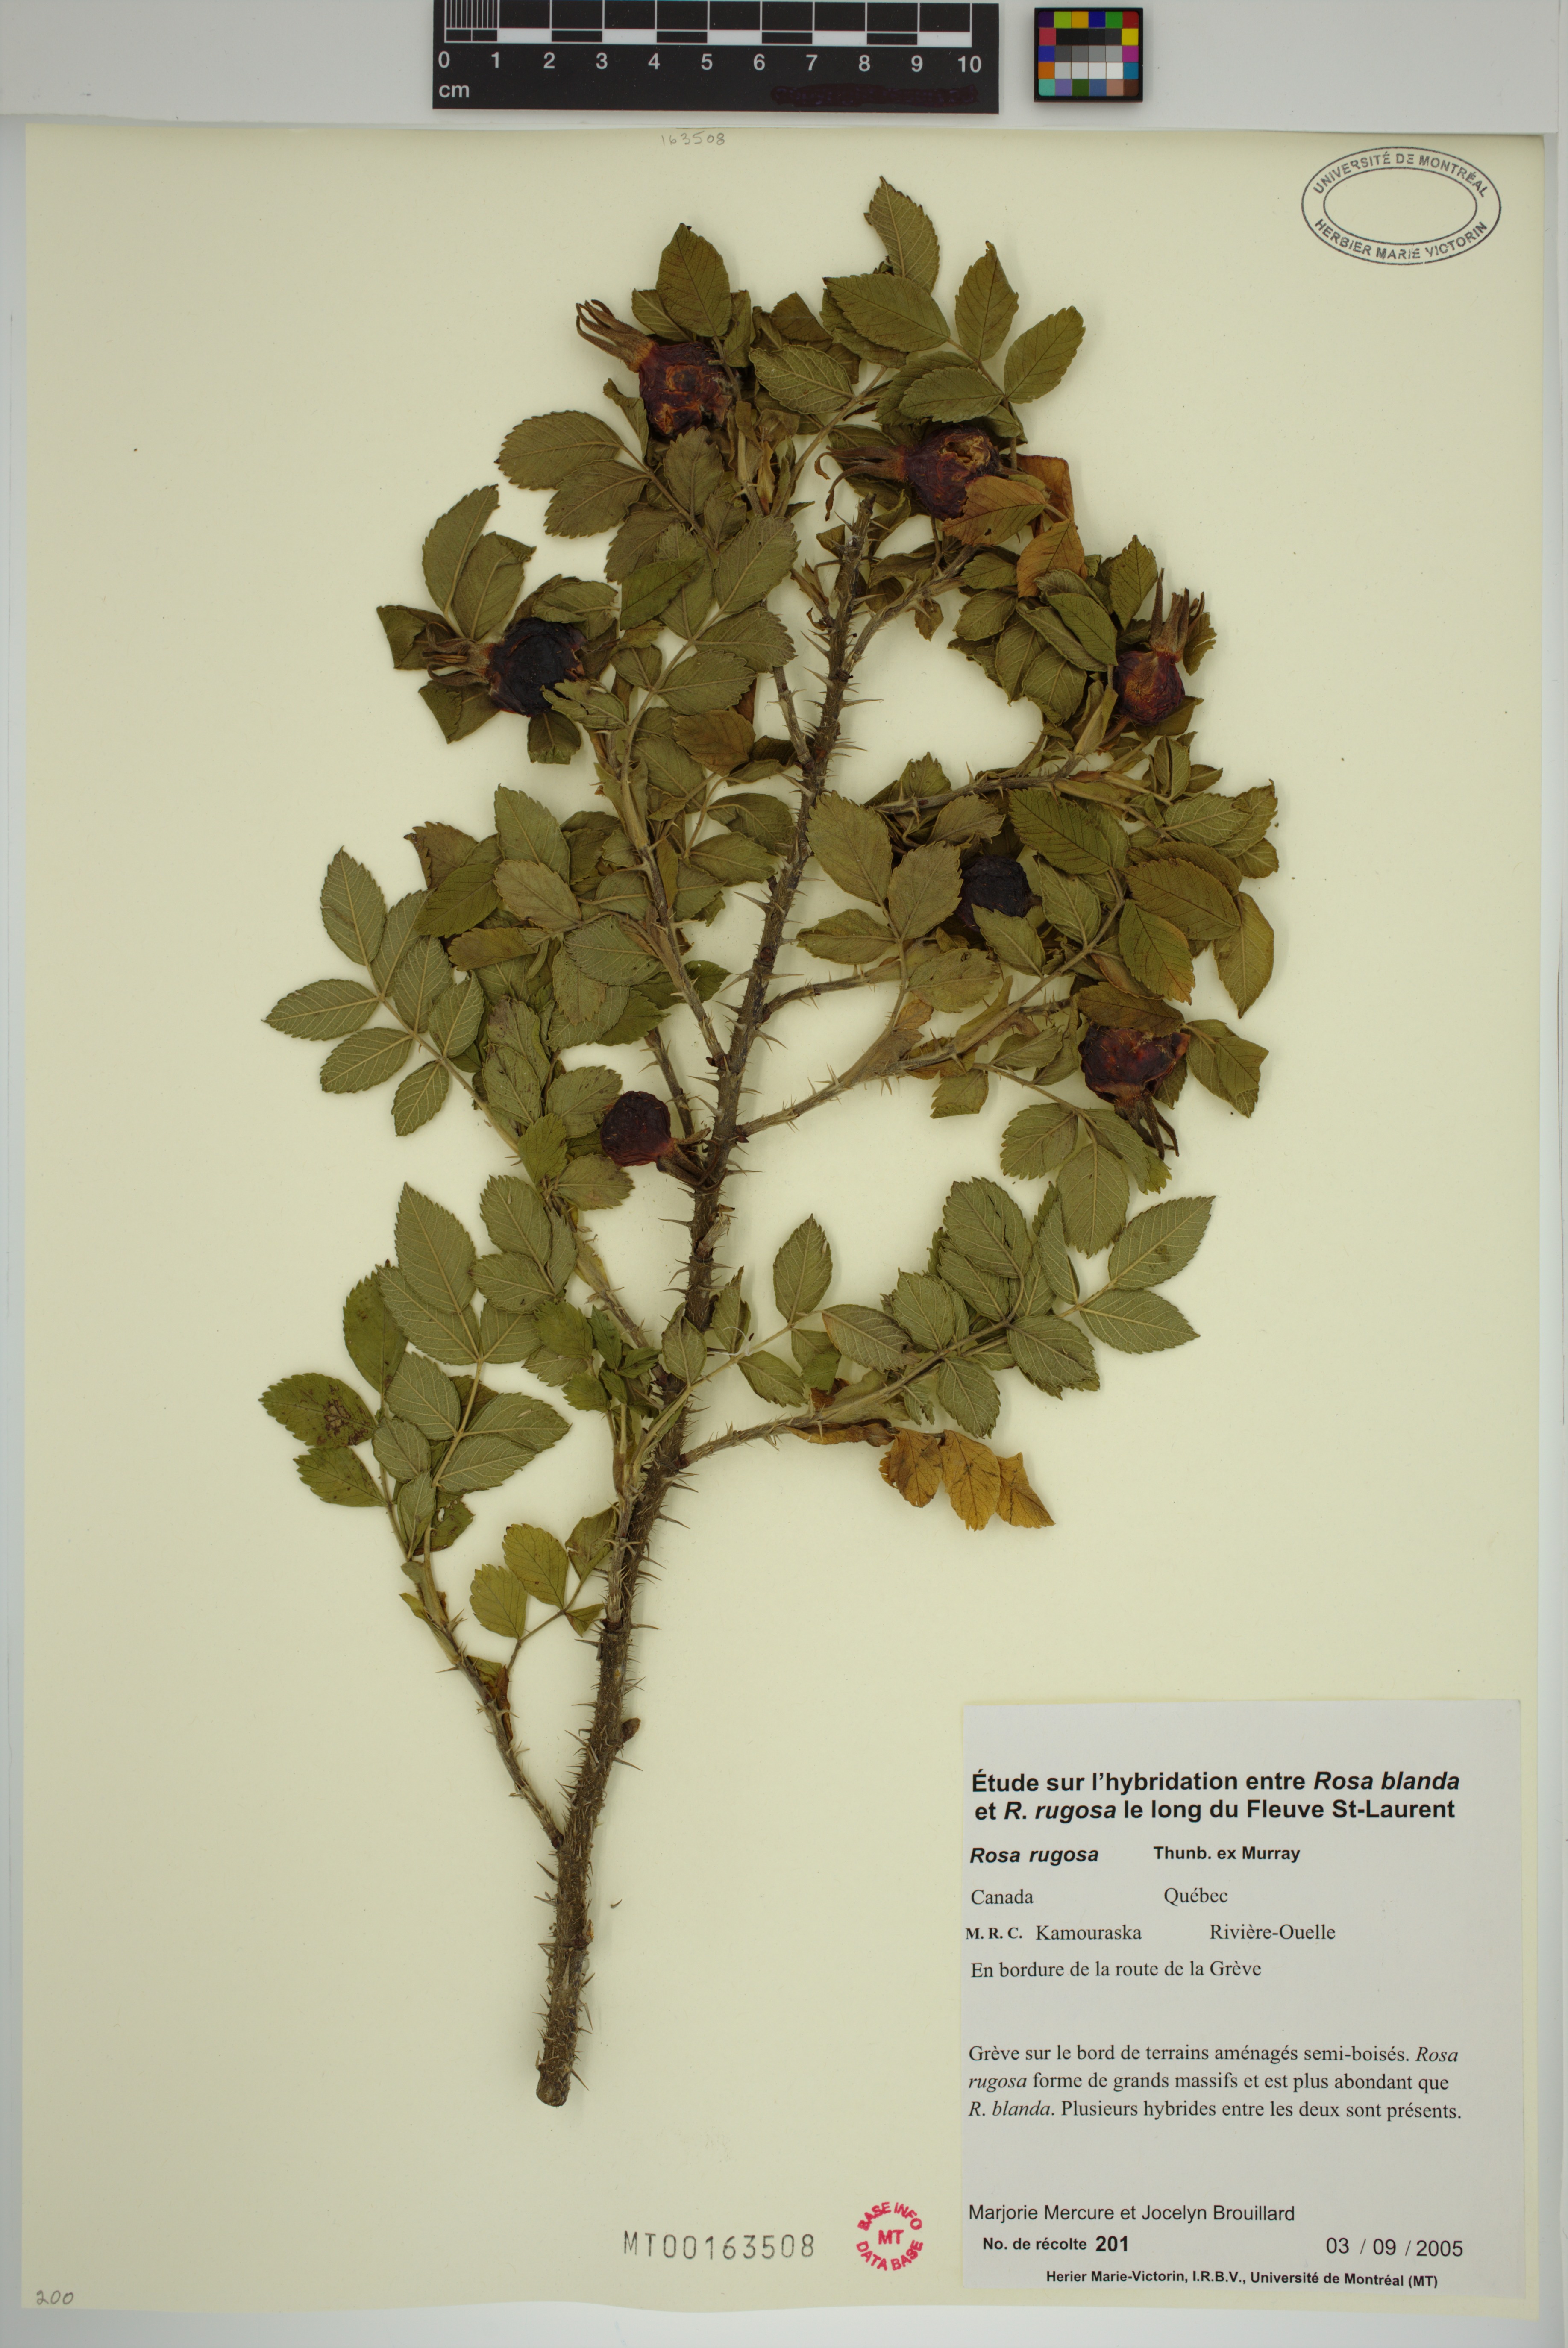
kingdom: Plantae
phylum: Tracheophyta
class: Magnoliopsida
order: Rosales
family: Rosaceae
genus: Rosa
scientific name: Rosa rugosa
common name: Japanese rose
